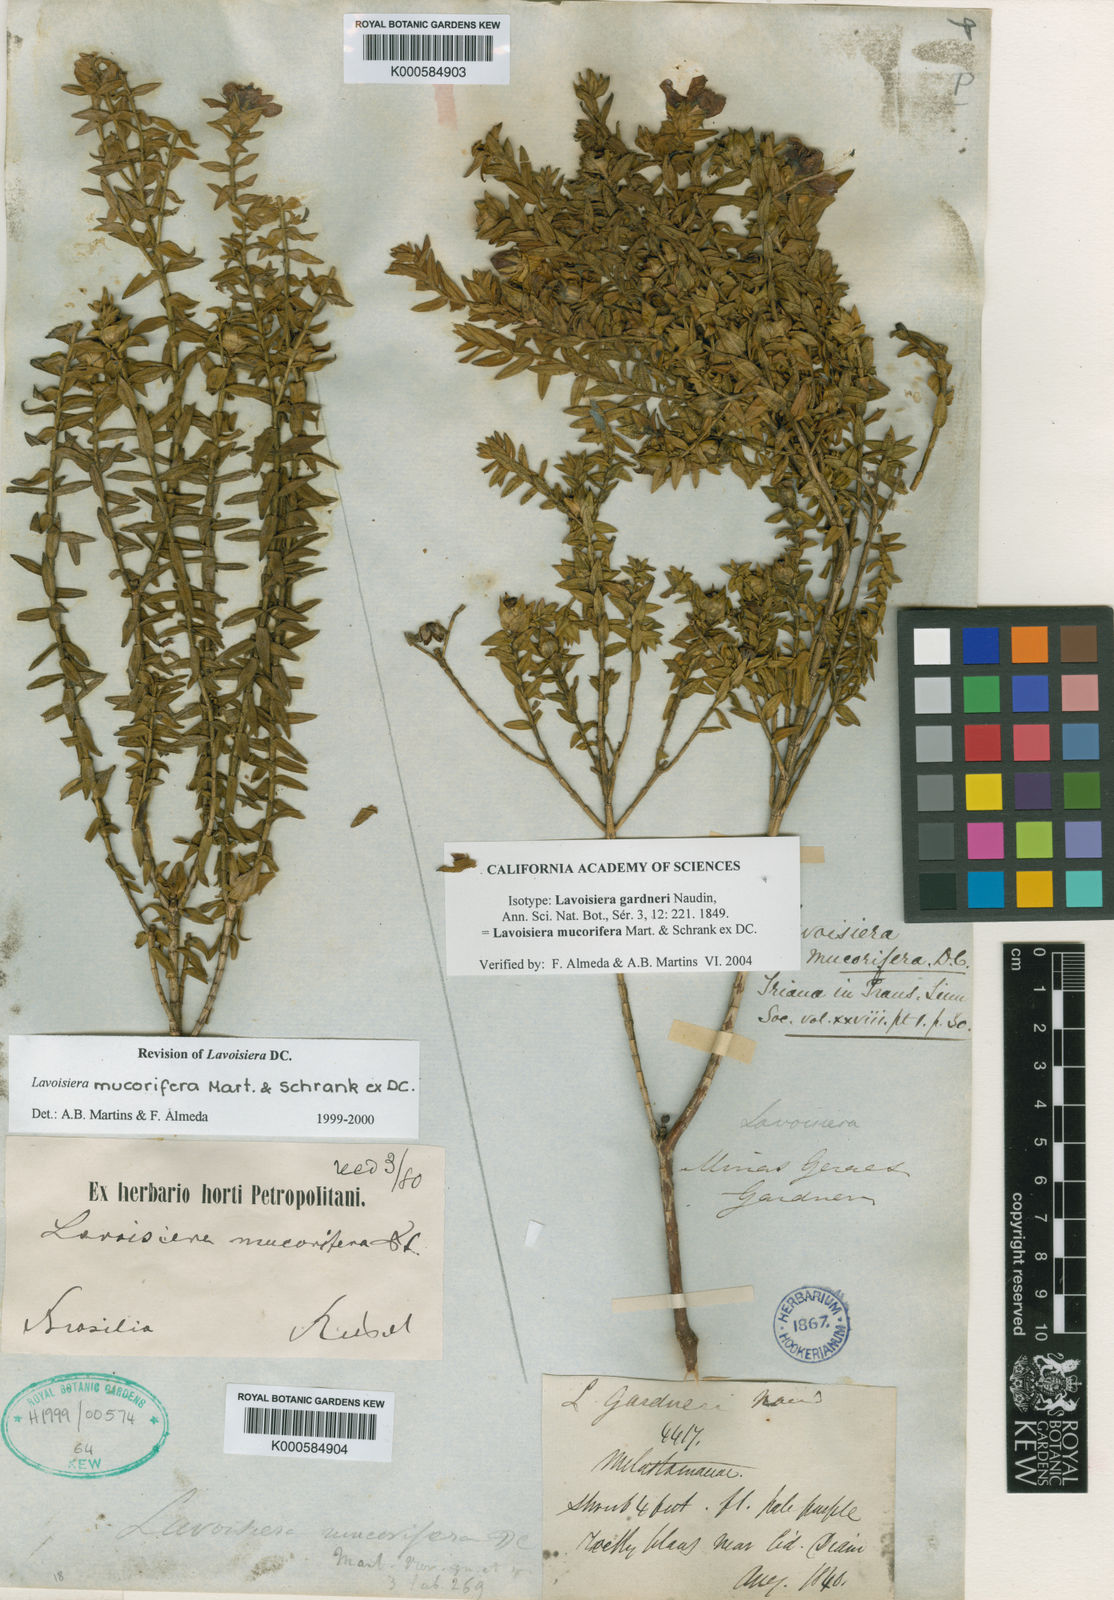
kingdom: Plantae
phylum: Tracheophyta
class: Magnoliopsida
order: Myrtales
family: Melastomataceae
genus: Microlicia
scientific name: Microlicia mucorifera
